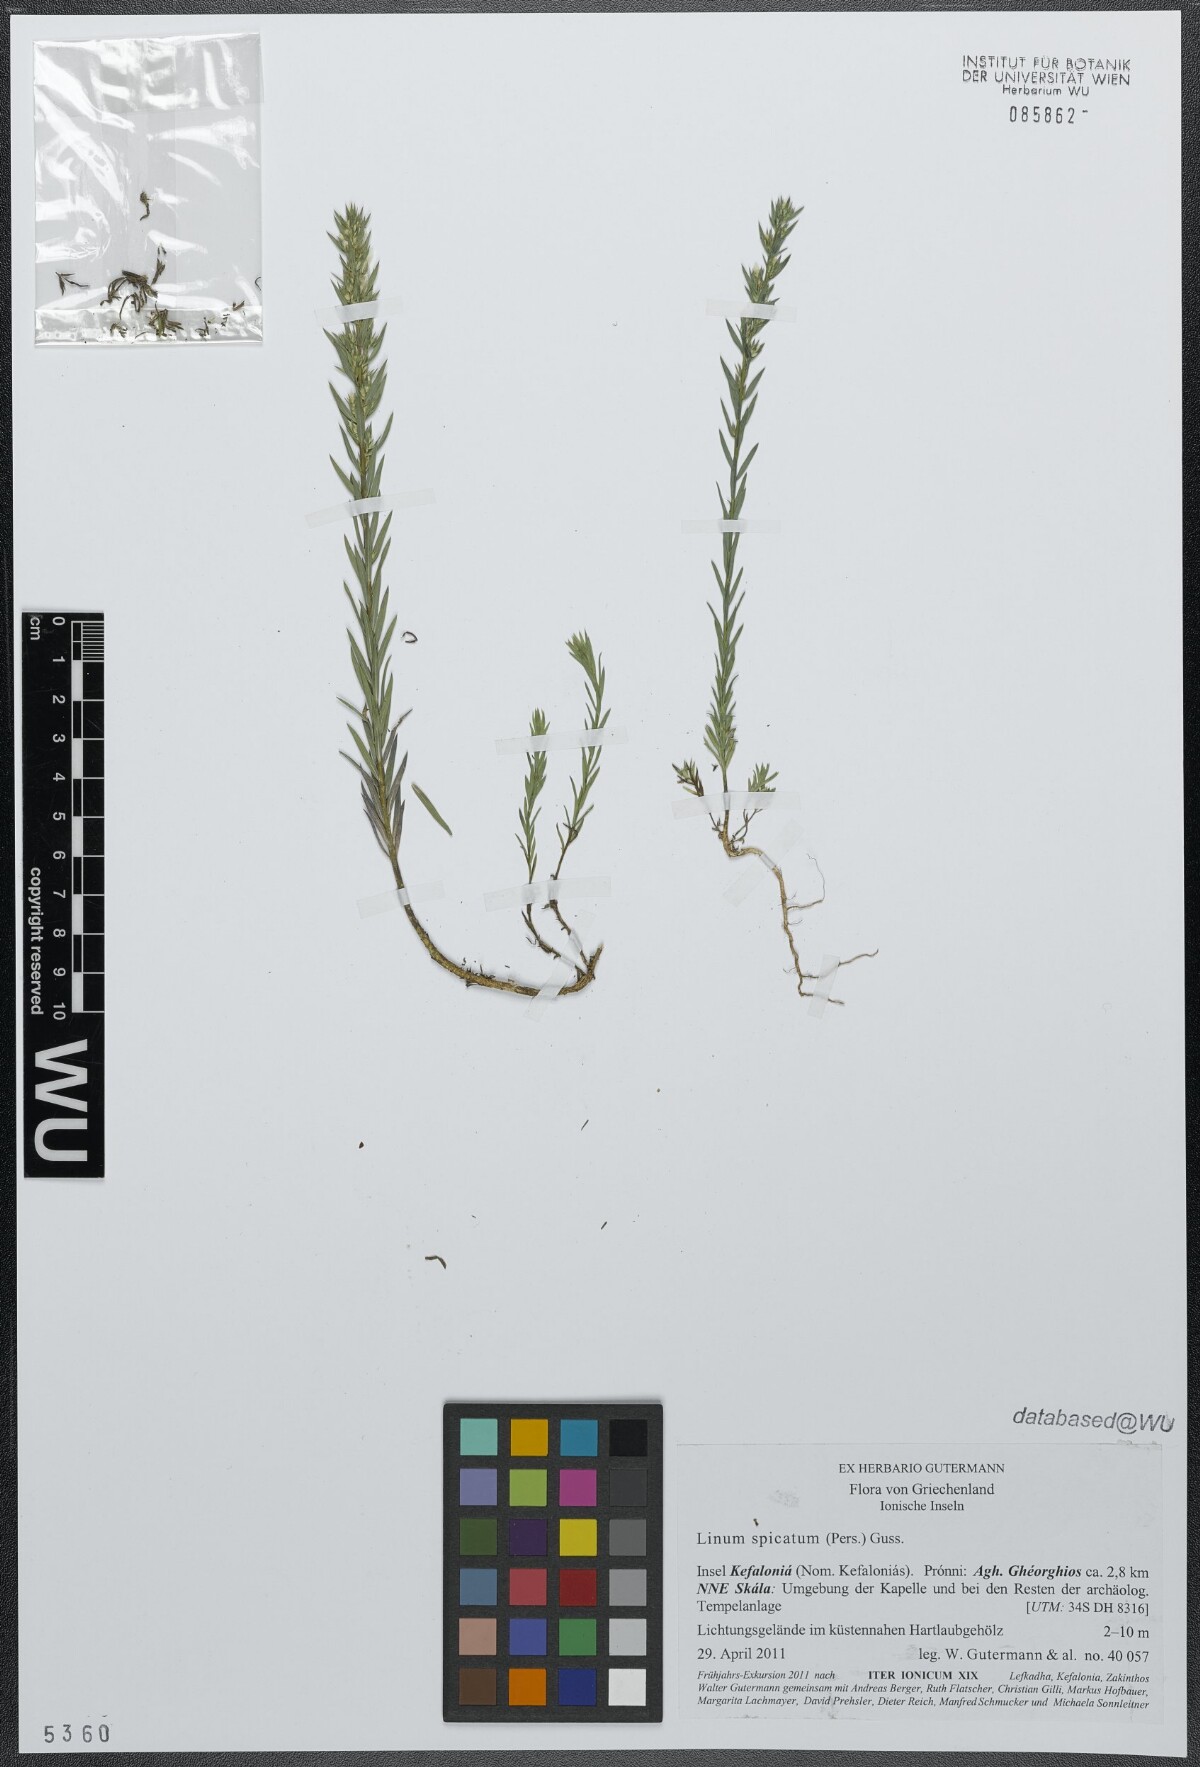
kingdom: Plantae
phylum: Tracheophyta
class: Magnoliopsida
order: Malpighiales
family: Linaceae
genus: Linum
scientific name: Linum strictum
